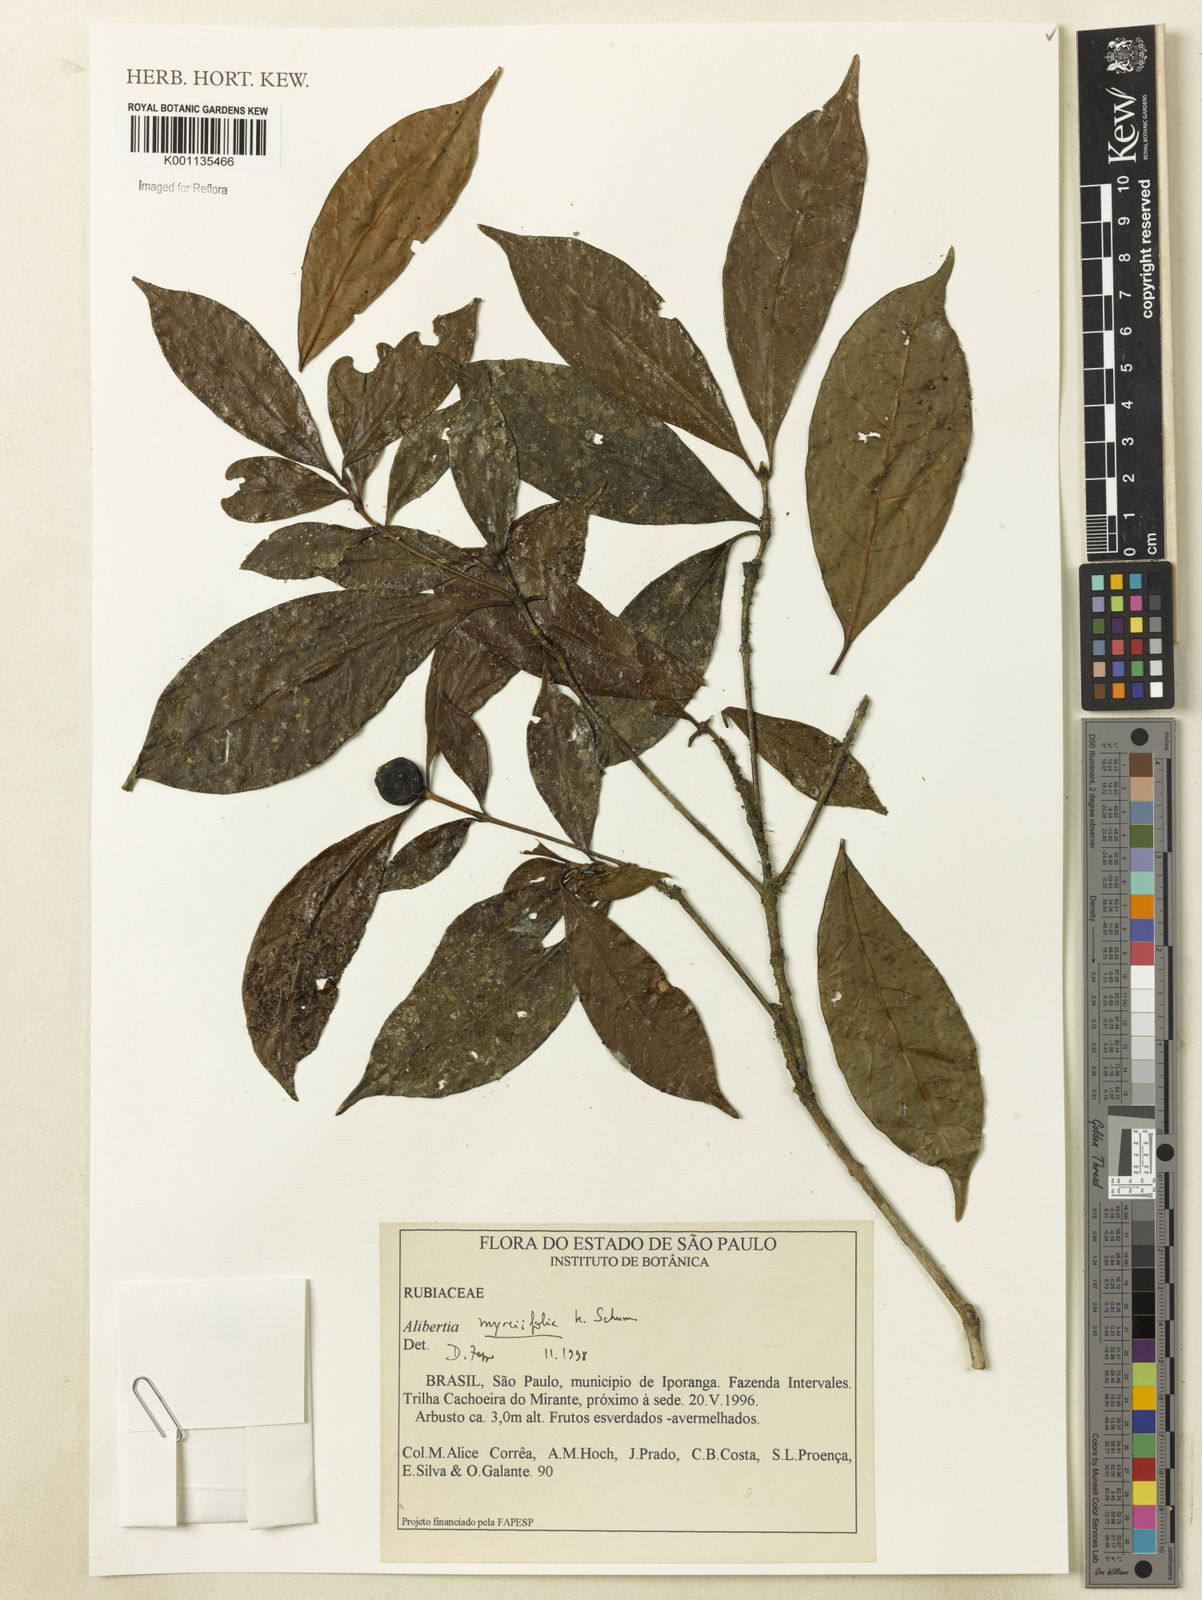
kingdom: Plantae
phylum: Tracheophyta
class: Magnoliopsida
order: Gentianales
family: Rubiaceae
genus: Cordiera
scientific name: Cordiera myrciifolia
